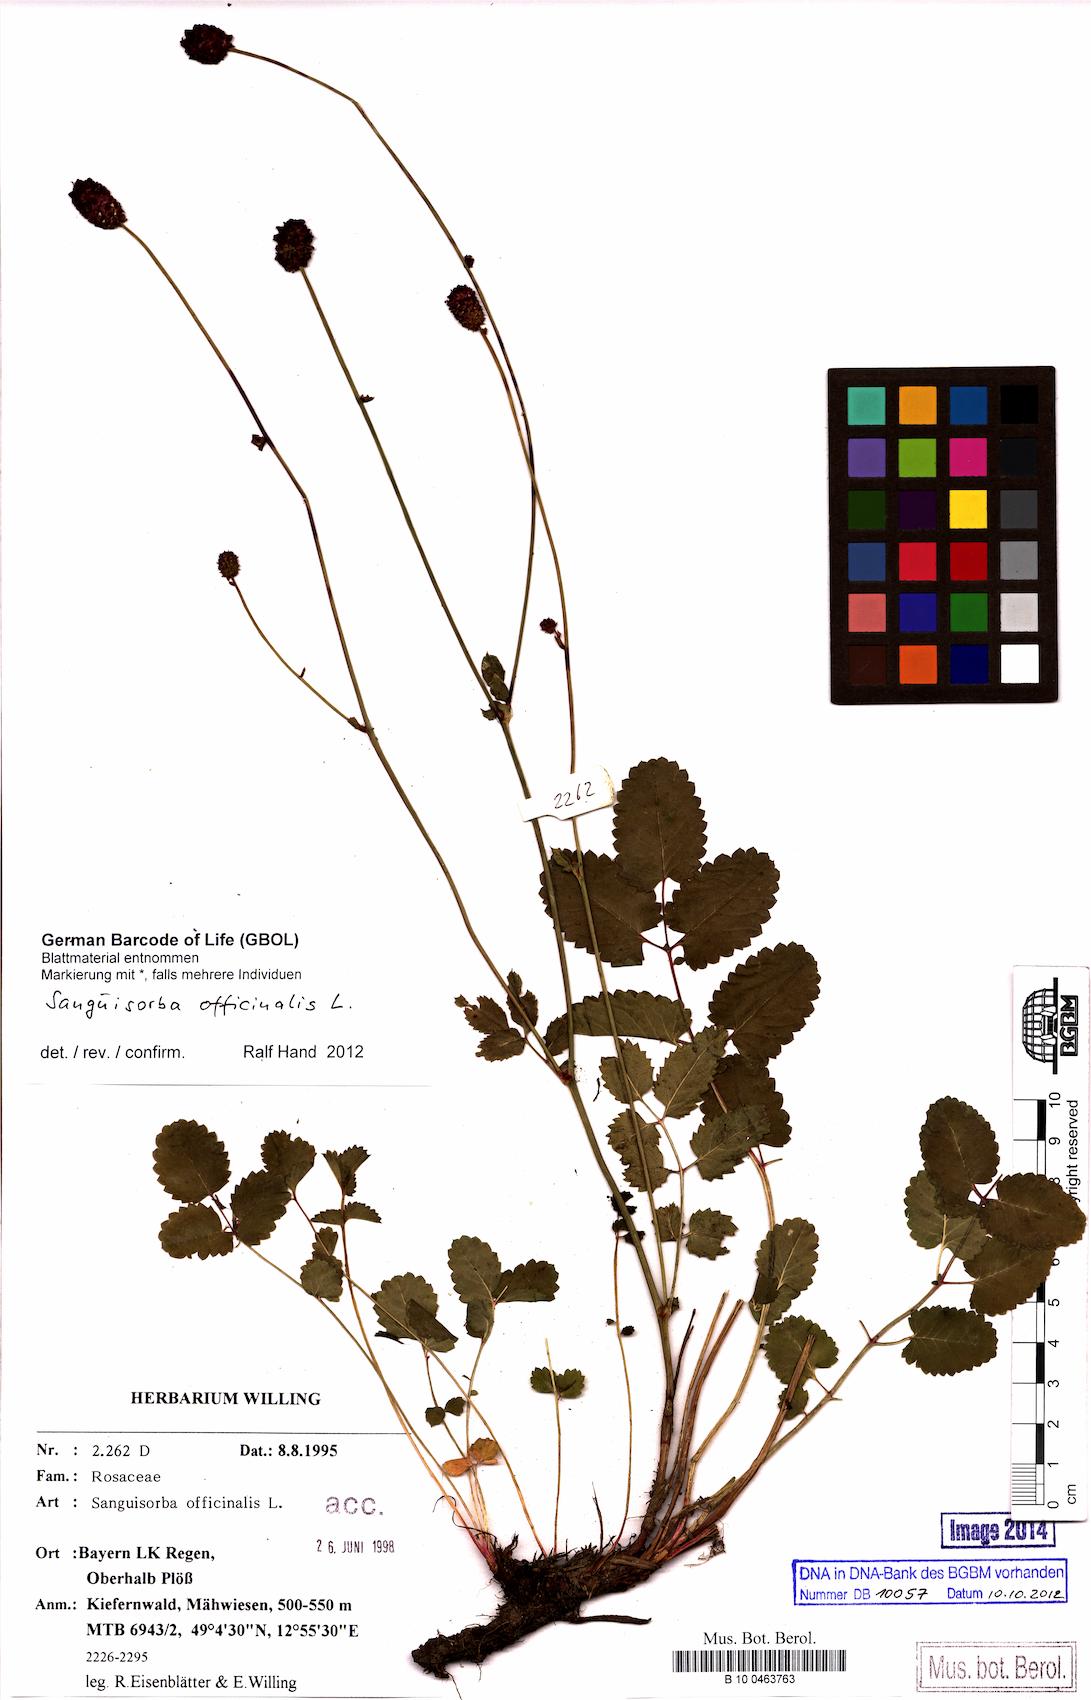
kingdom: Plantae
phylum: Tracheophyta
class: Magnoliopsida
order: Rosales
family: Rosaceae
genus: Sanguisorba
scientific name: Sanguisorba officinalis
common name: Great burnet
